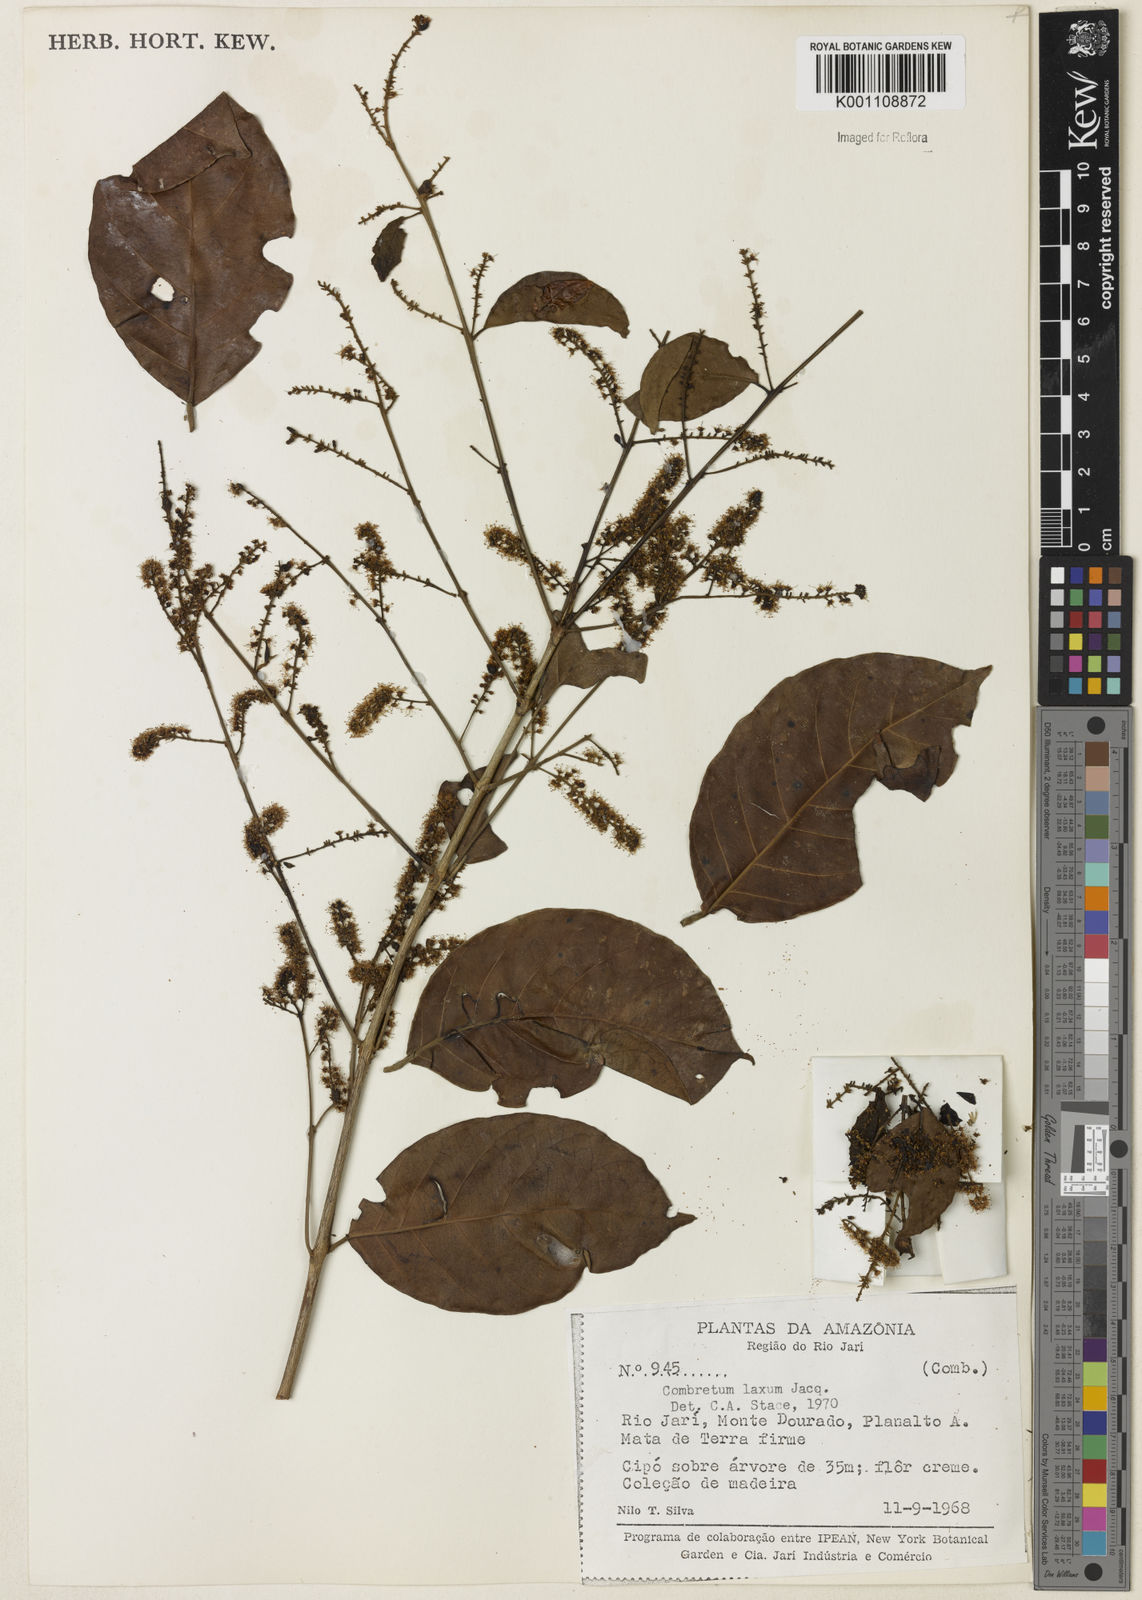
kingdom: Plantae
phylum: Tracheophyta
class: Magnoliopsida
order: Myrtales
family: Combretaceae
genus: Combretum
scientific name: Combretum laxum
